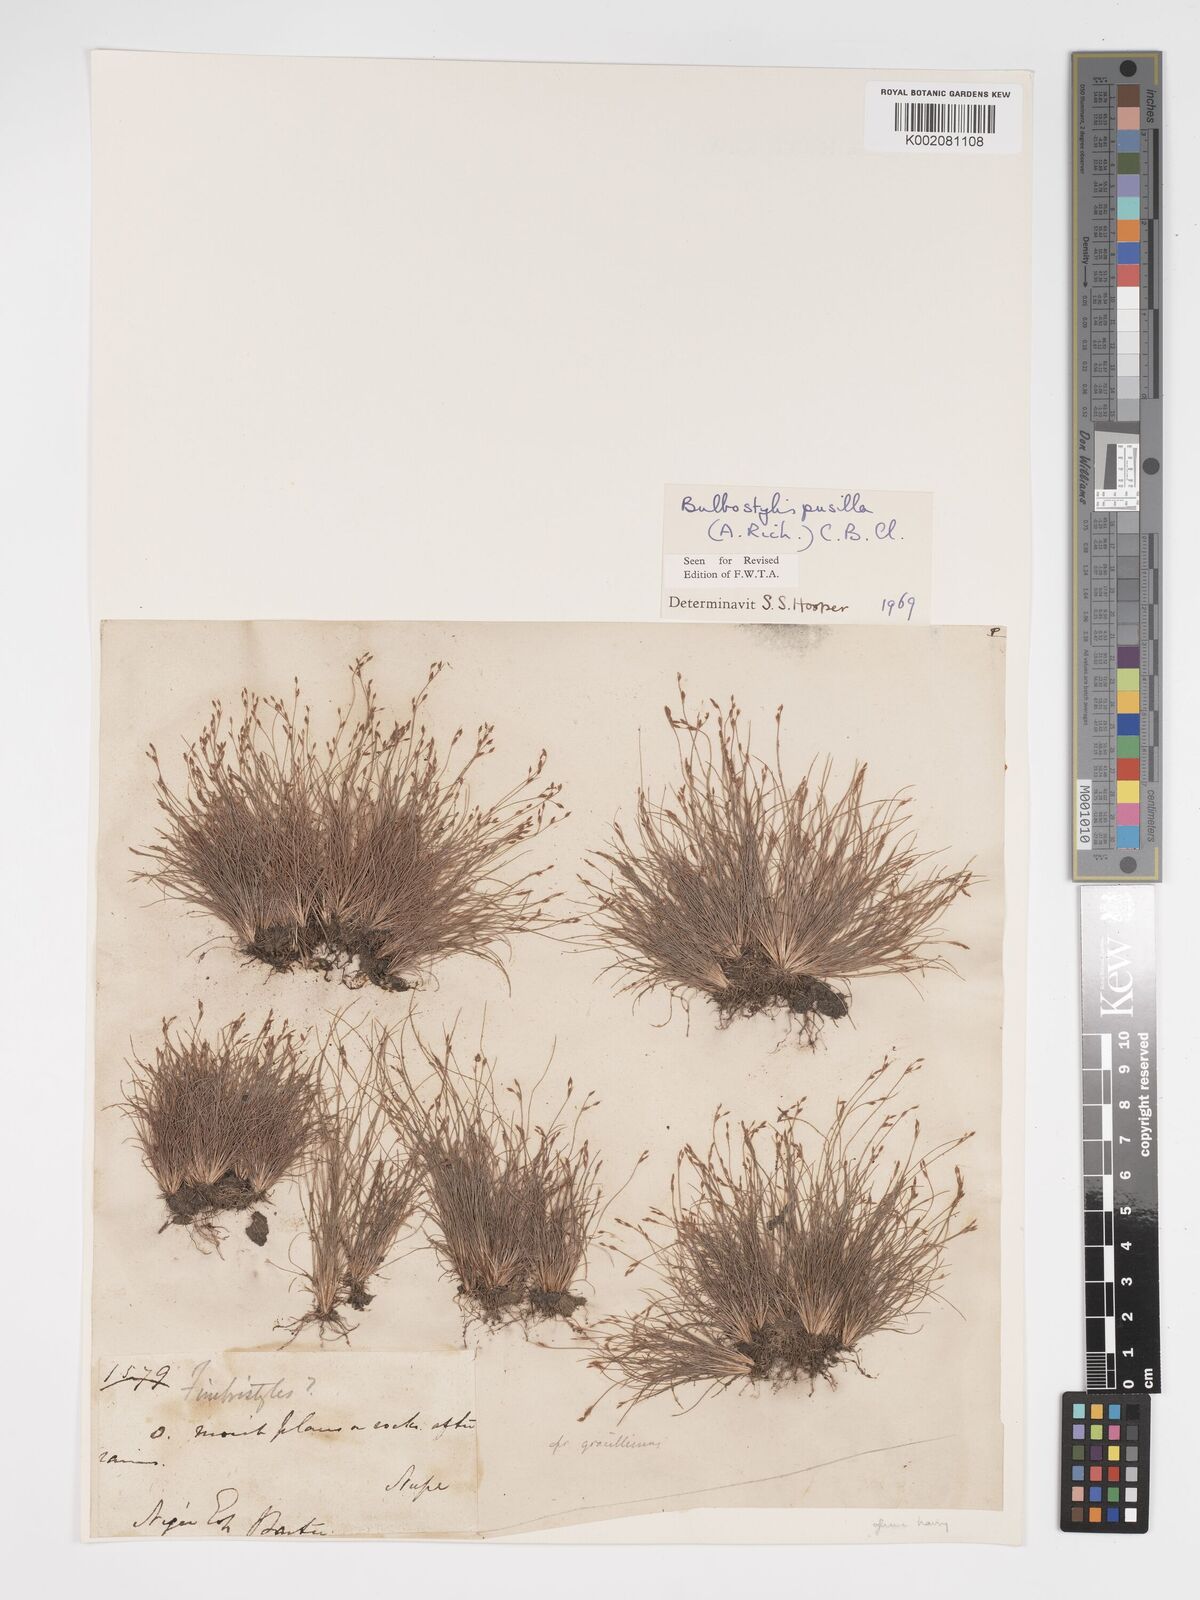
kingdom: Plantae
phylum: Tracheophyta
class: Liliopsida
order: Poales
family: Cyperaceae
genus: Bulbostylis
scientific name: Bulbostylis pusilla
